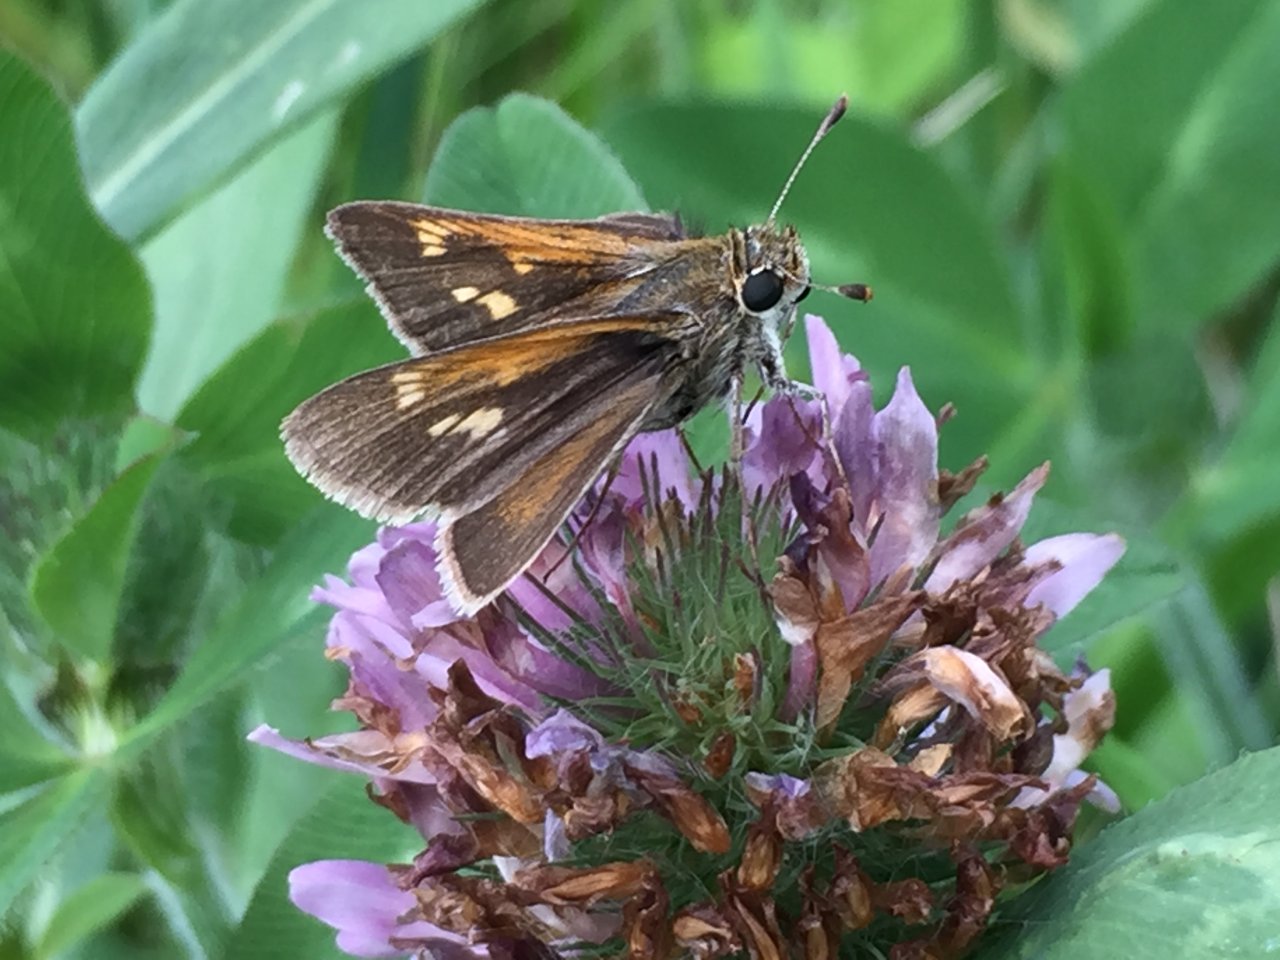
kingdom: Animalia
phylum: Arthropoda
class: Insecta
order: Lepidoptera
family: Hesperiidae
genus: Polites
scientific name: Polites themistocles
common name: Tawny-edged Skipper
